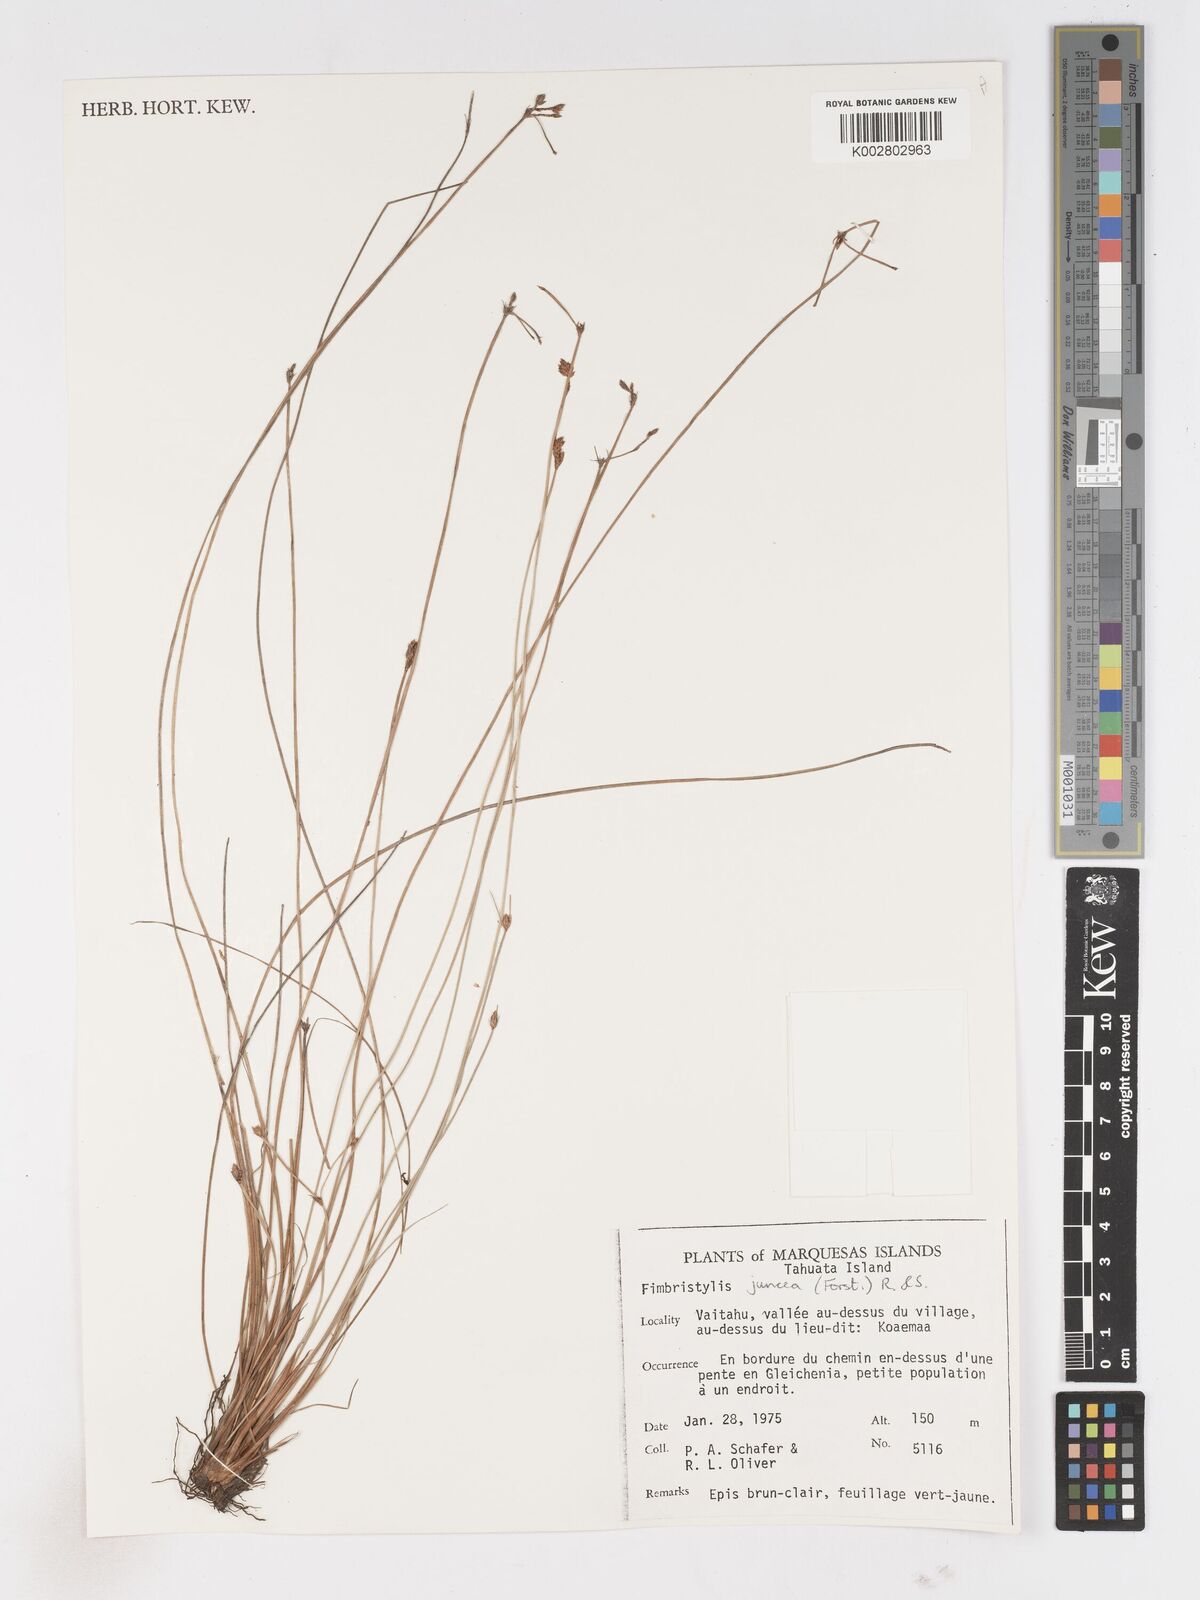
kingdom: Plantae
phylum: Tracheophyta
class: Liliopsida
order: Poales
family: Cyperaceae
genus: Fimbristylis
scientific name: Fimbristylis juncea
